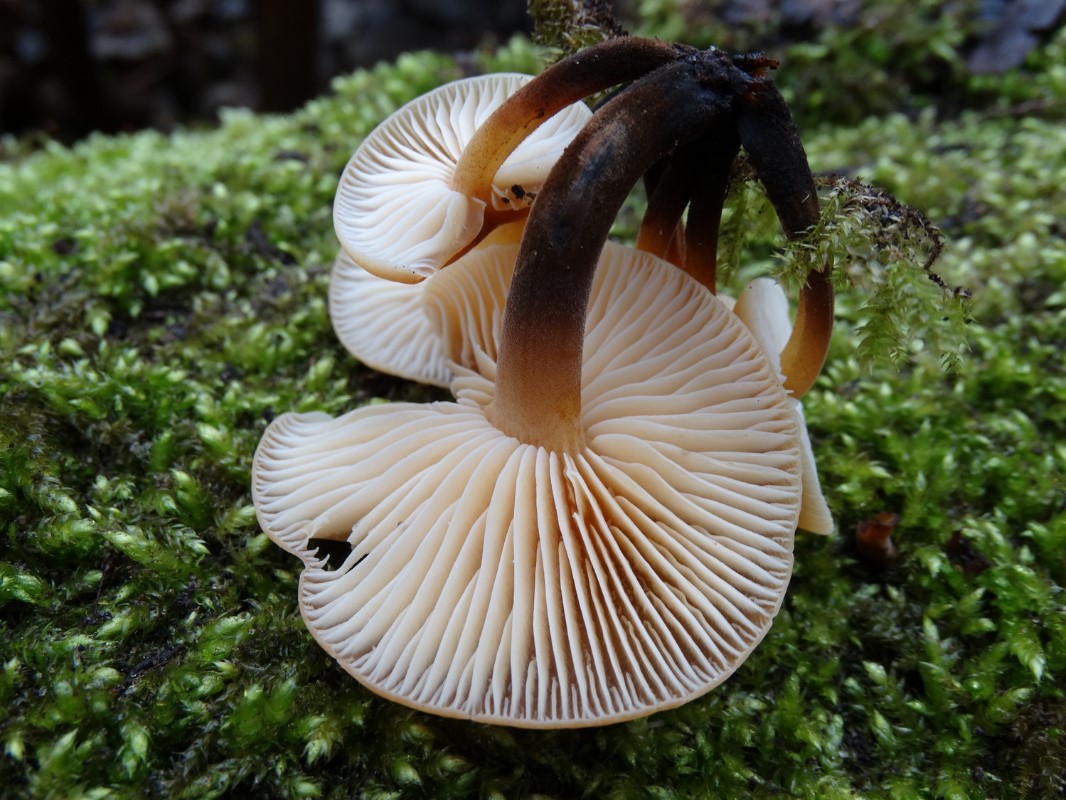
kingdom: Fungi
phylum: Basidiomycota
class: Agaricomycetes
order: Agaricales
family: Physalacriaceae
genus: Flammulina
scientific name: Flammulina velutipes
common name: gul fløjlsfod
